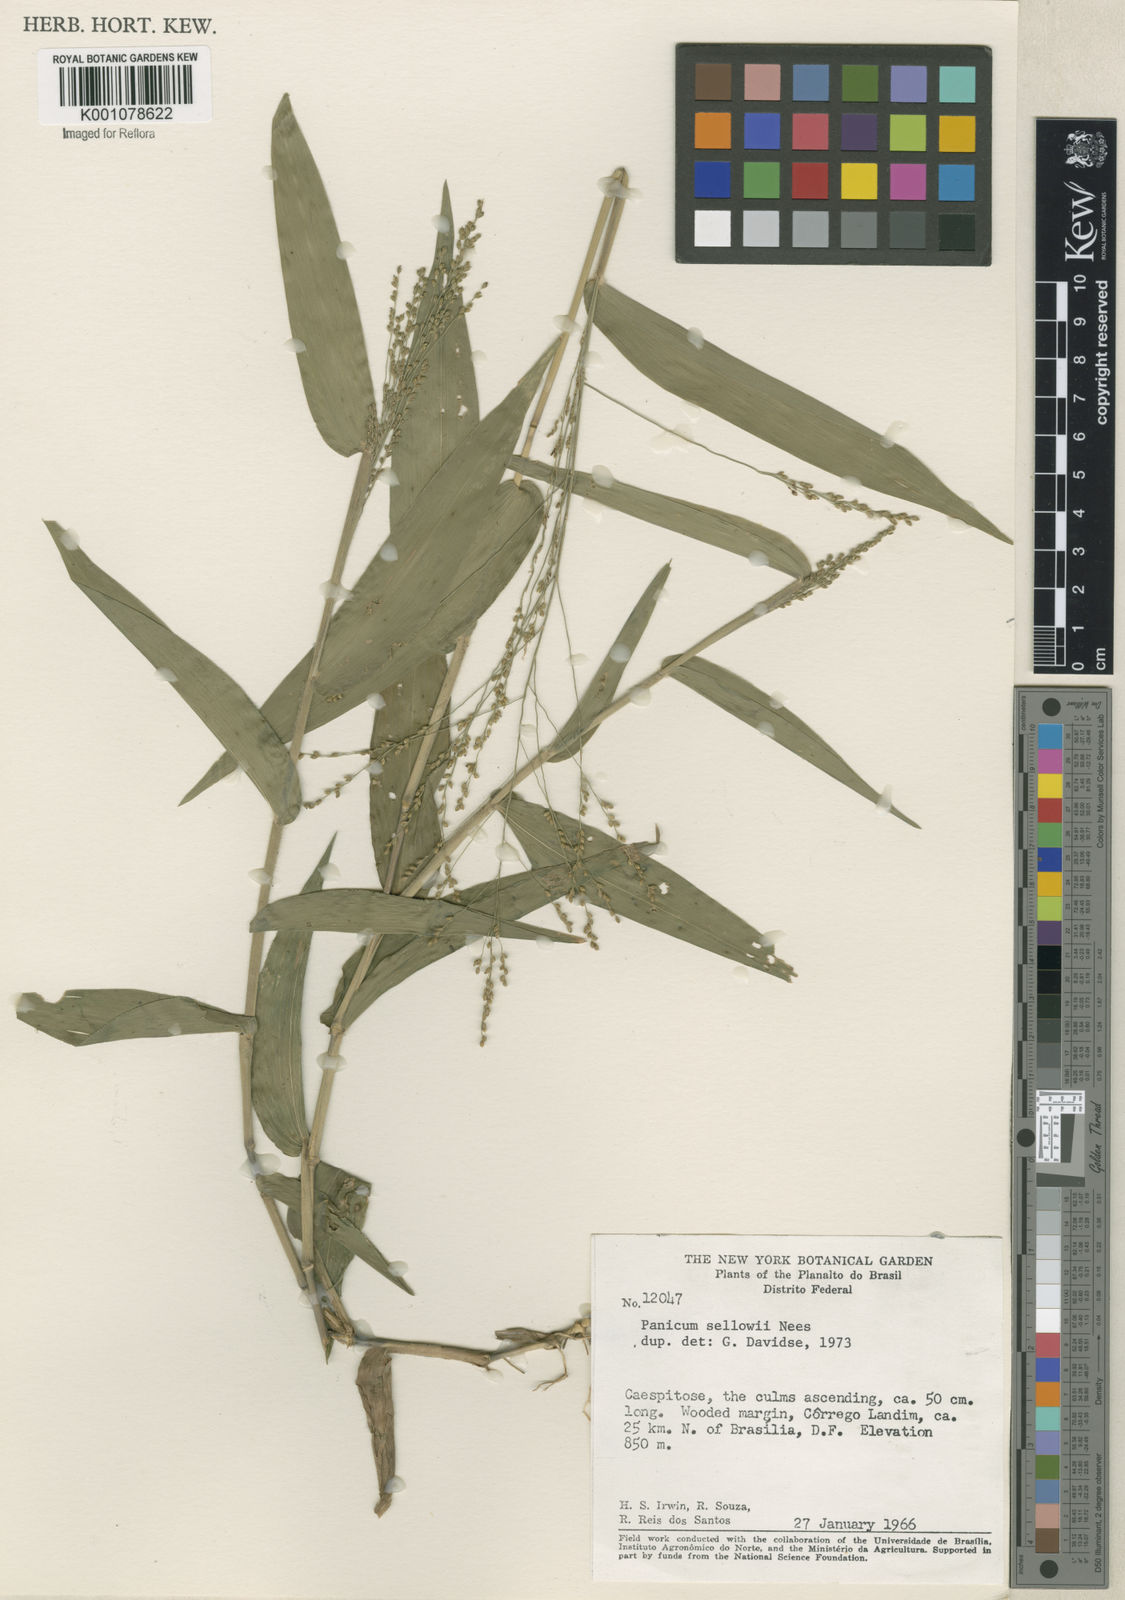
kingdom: Plantae
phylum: Tracheophyta
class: Liliopsida
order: Poales
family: Poaceae
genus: Panicum
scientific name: Panicum sellowii
